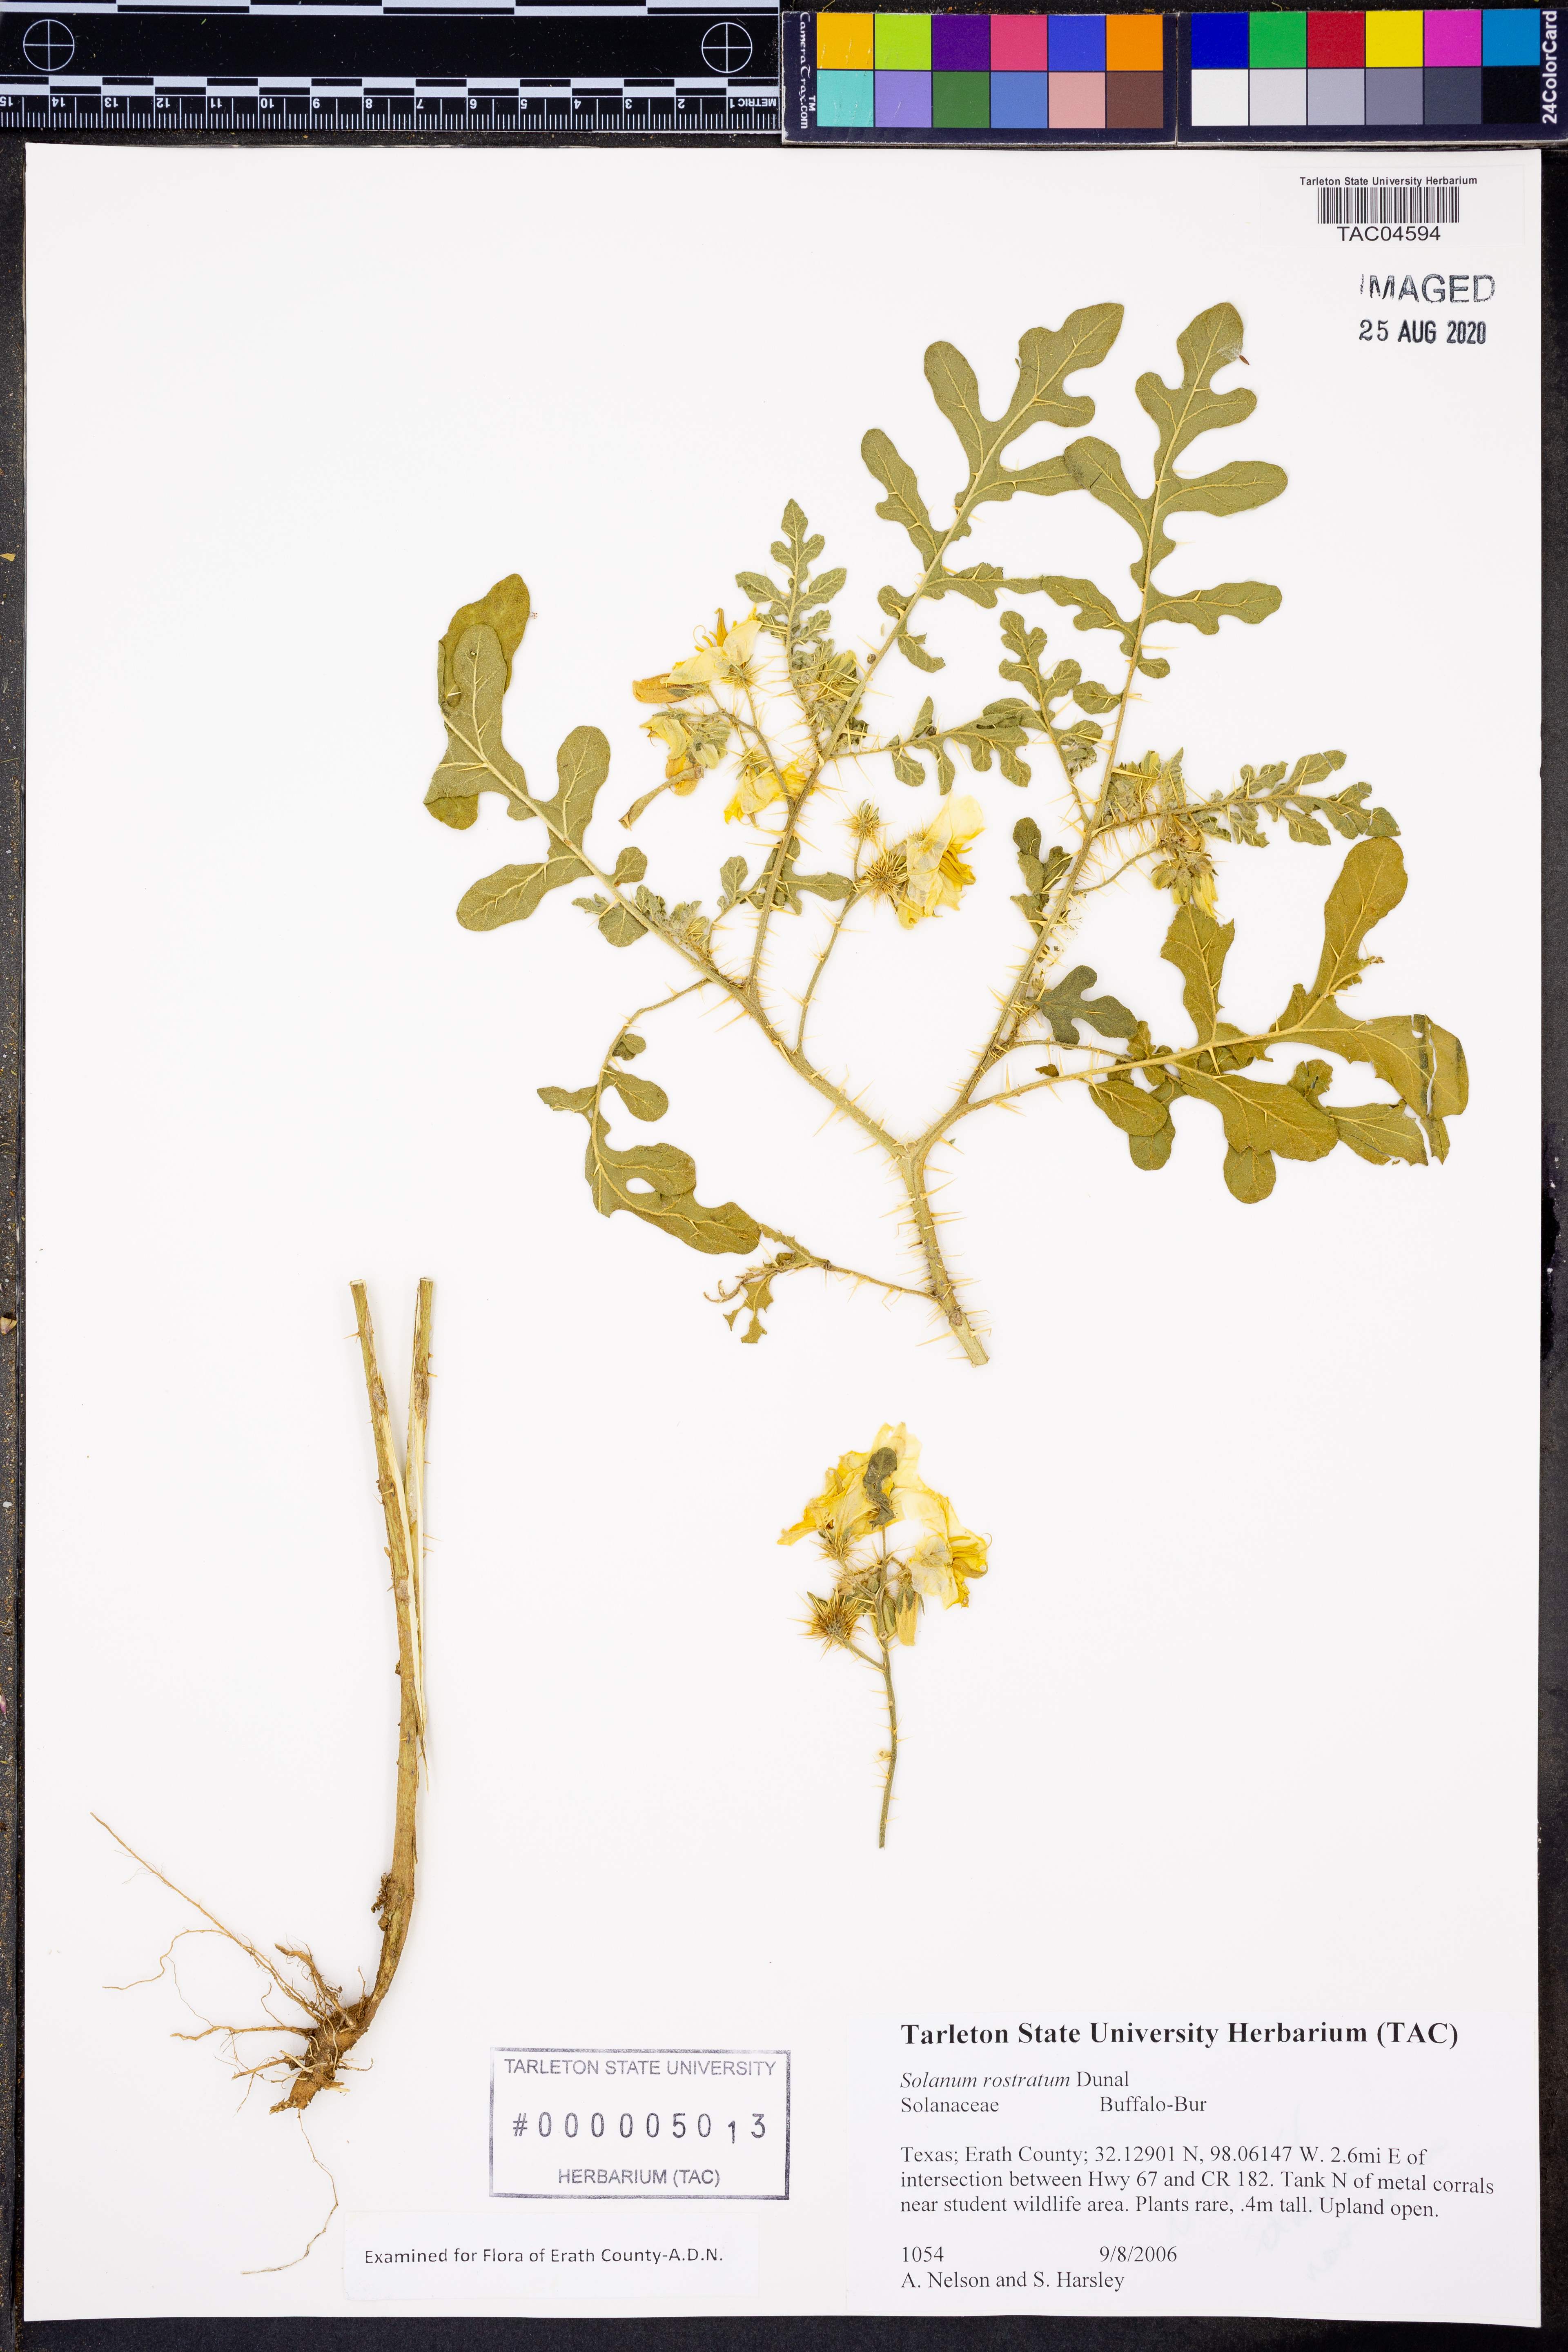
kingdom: Plantae
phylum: Tracheophyta
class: Magnoliopsida
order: Solanales
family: Solanaceae
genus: Solanum
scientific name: Solanum angustifolium
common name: Buffalobur nightshade
